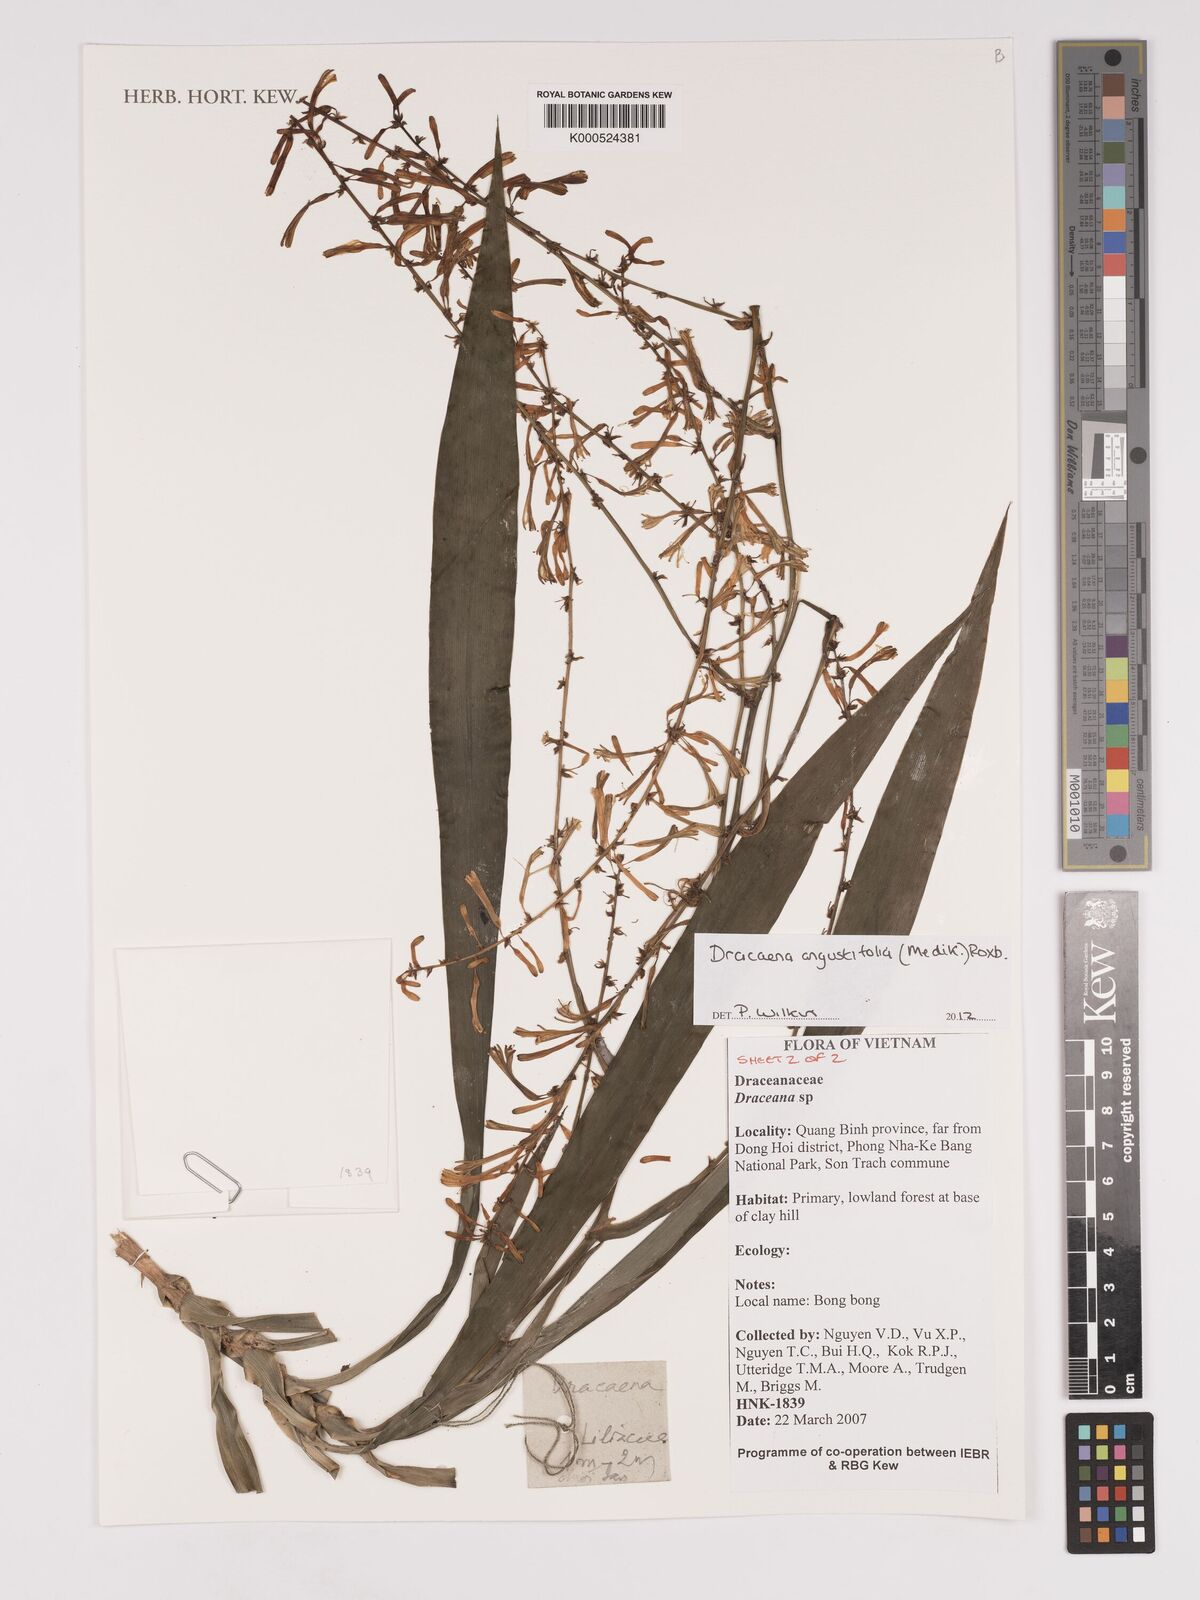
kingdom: Plantae
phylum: Tracheophyta
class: Liliopsida
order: Asparagales
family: Asparagaceae
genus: Dracaena
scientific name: Dracaena angustifolia
